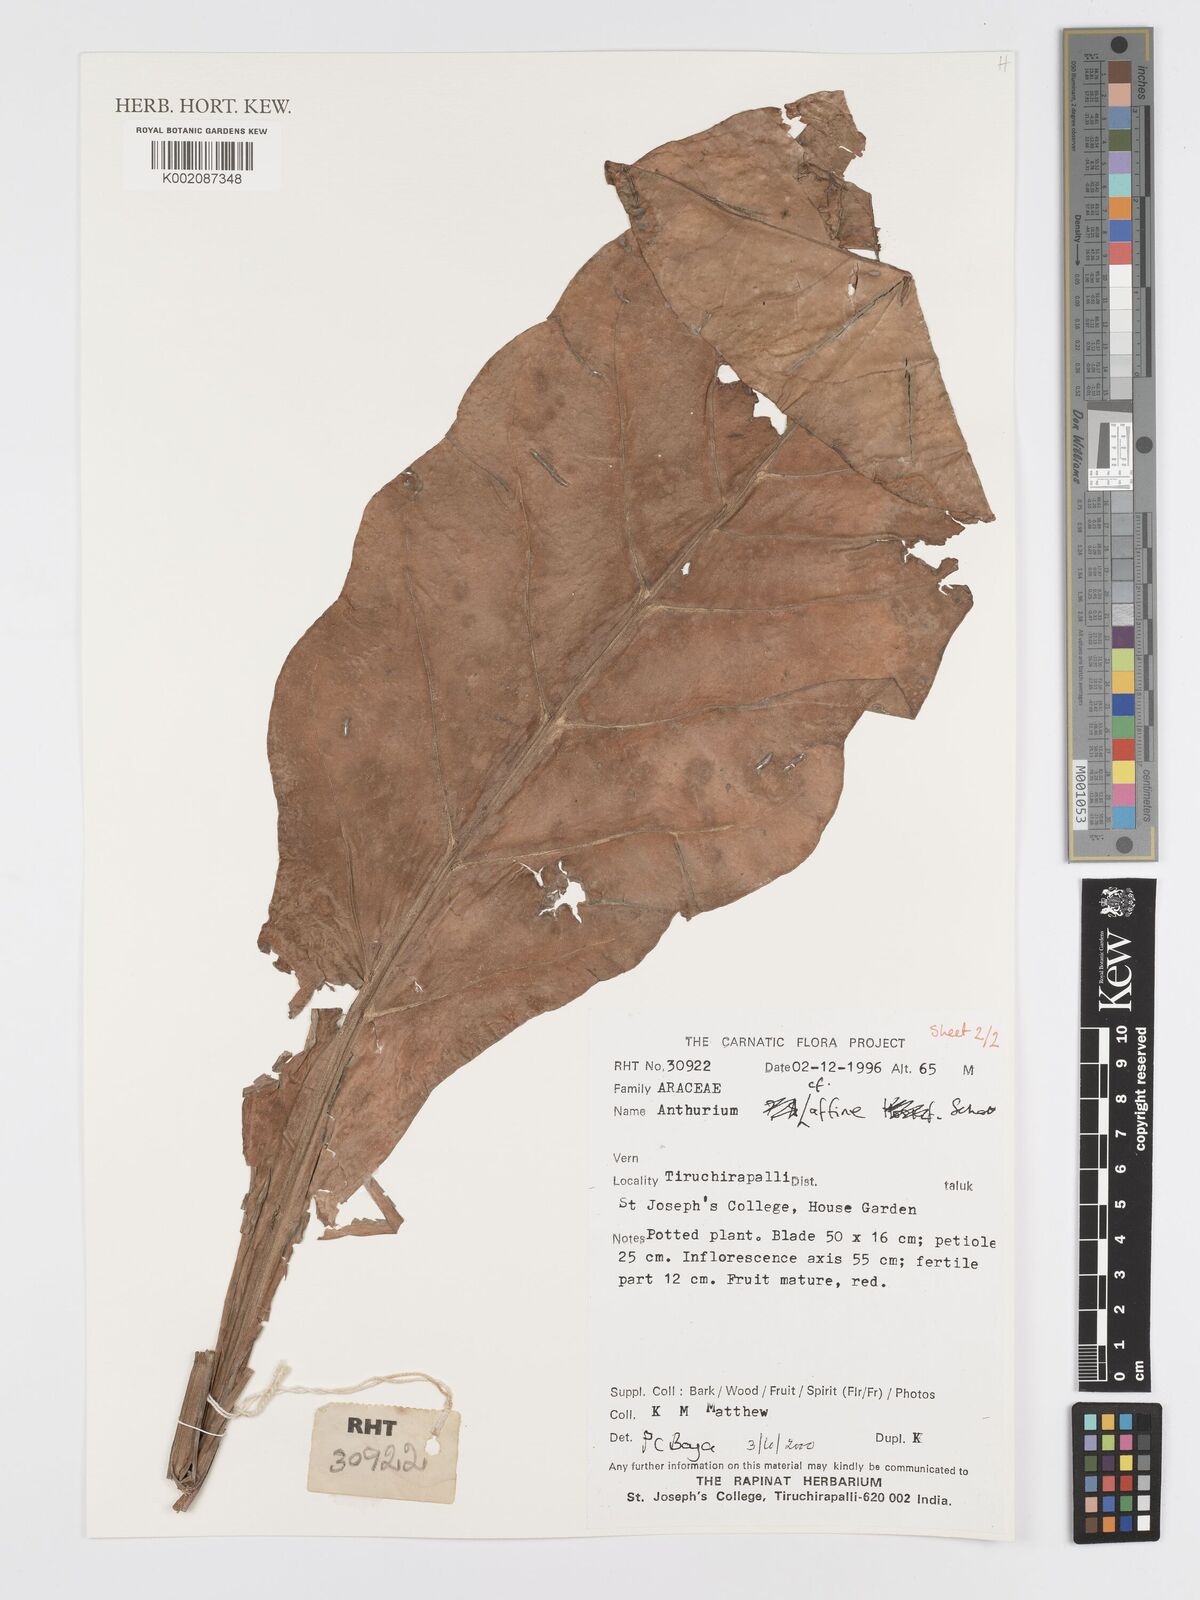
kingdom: Plantae
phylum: Tracheophyta
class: Liliopsida
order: Alismatales
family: Araceae
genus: Anthurium
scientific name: Anthurium affine
